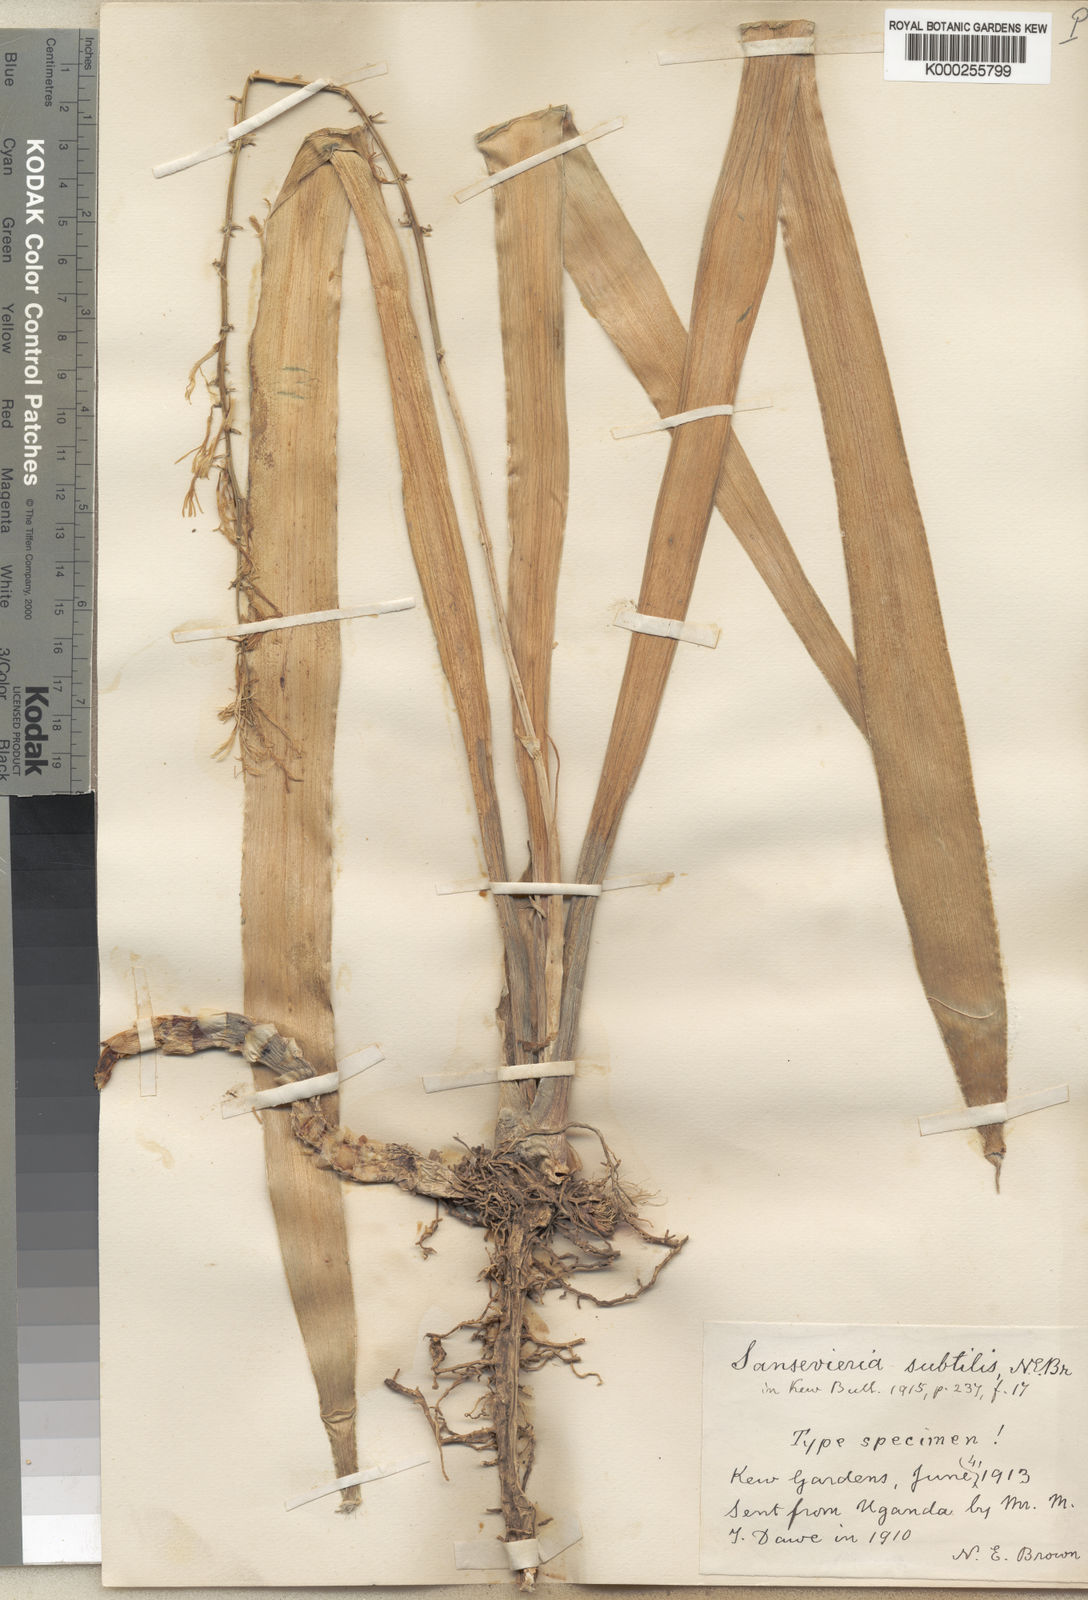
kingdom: Plantae
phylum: Tracheophyta
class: Liliopsida
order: Asparagales
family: Asparagaceae
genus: Dracaena
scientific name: Dracaena subtilis
